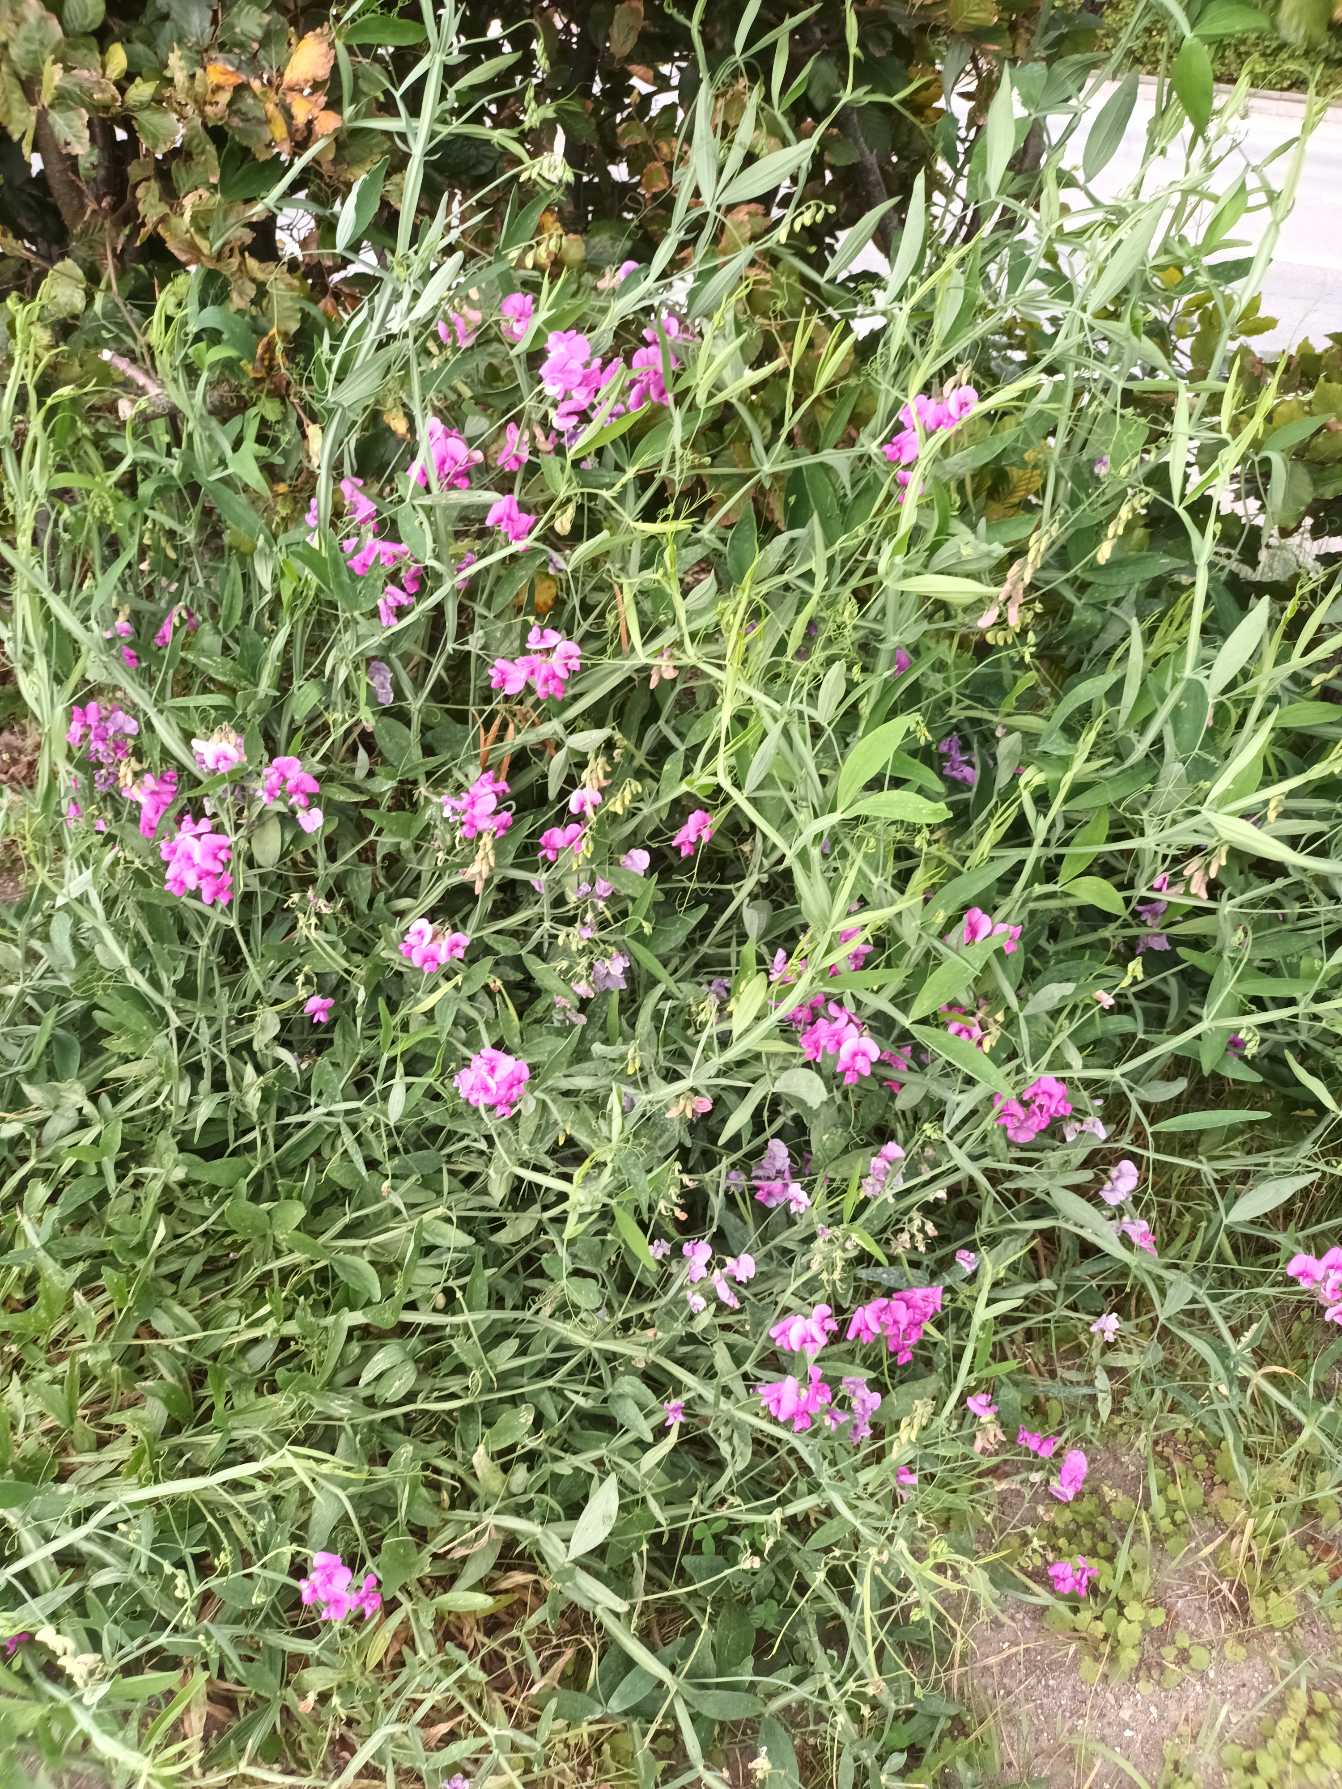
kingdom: Plantae
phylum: Tracheophyta
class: Magnoliopsida
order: Fabales
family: Fabaceae
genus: Lathyrus
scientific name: Lathyrus latifolius
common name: Flerårig ærteblomst
